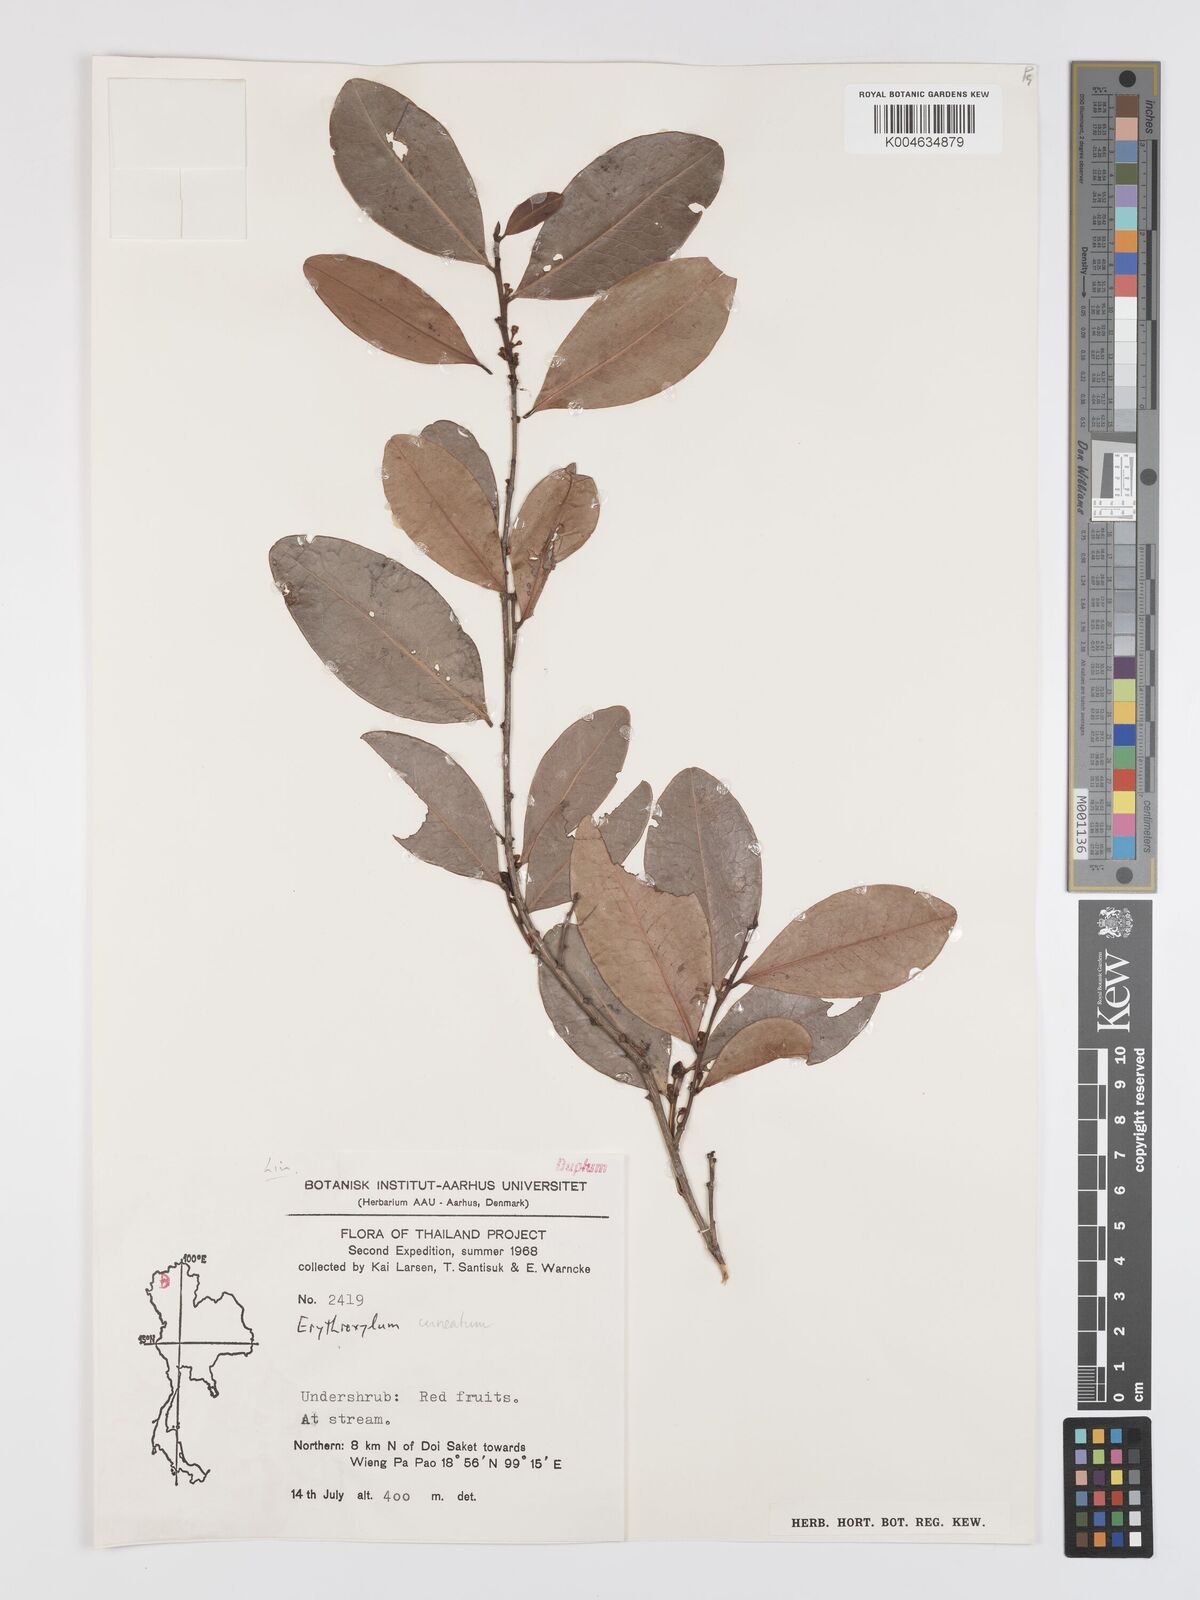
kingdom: Plantae
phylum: Tracheophyta
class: Magnoliopsida
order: Malpighiales
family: Erythroxylaceae
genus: Erythroxylum
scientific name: Erythroxylum
